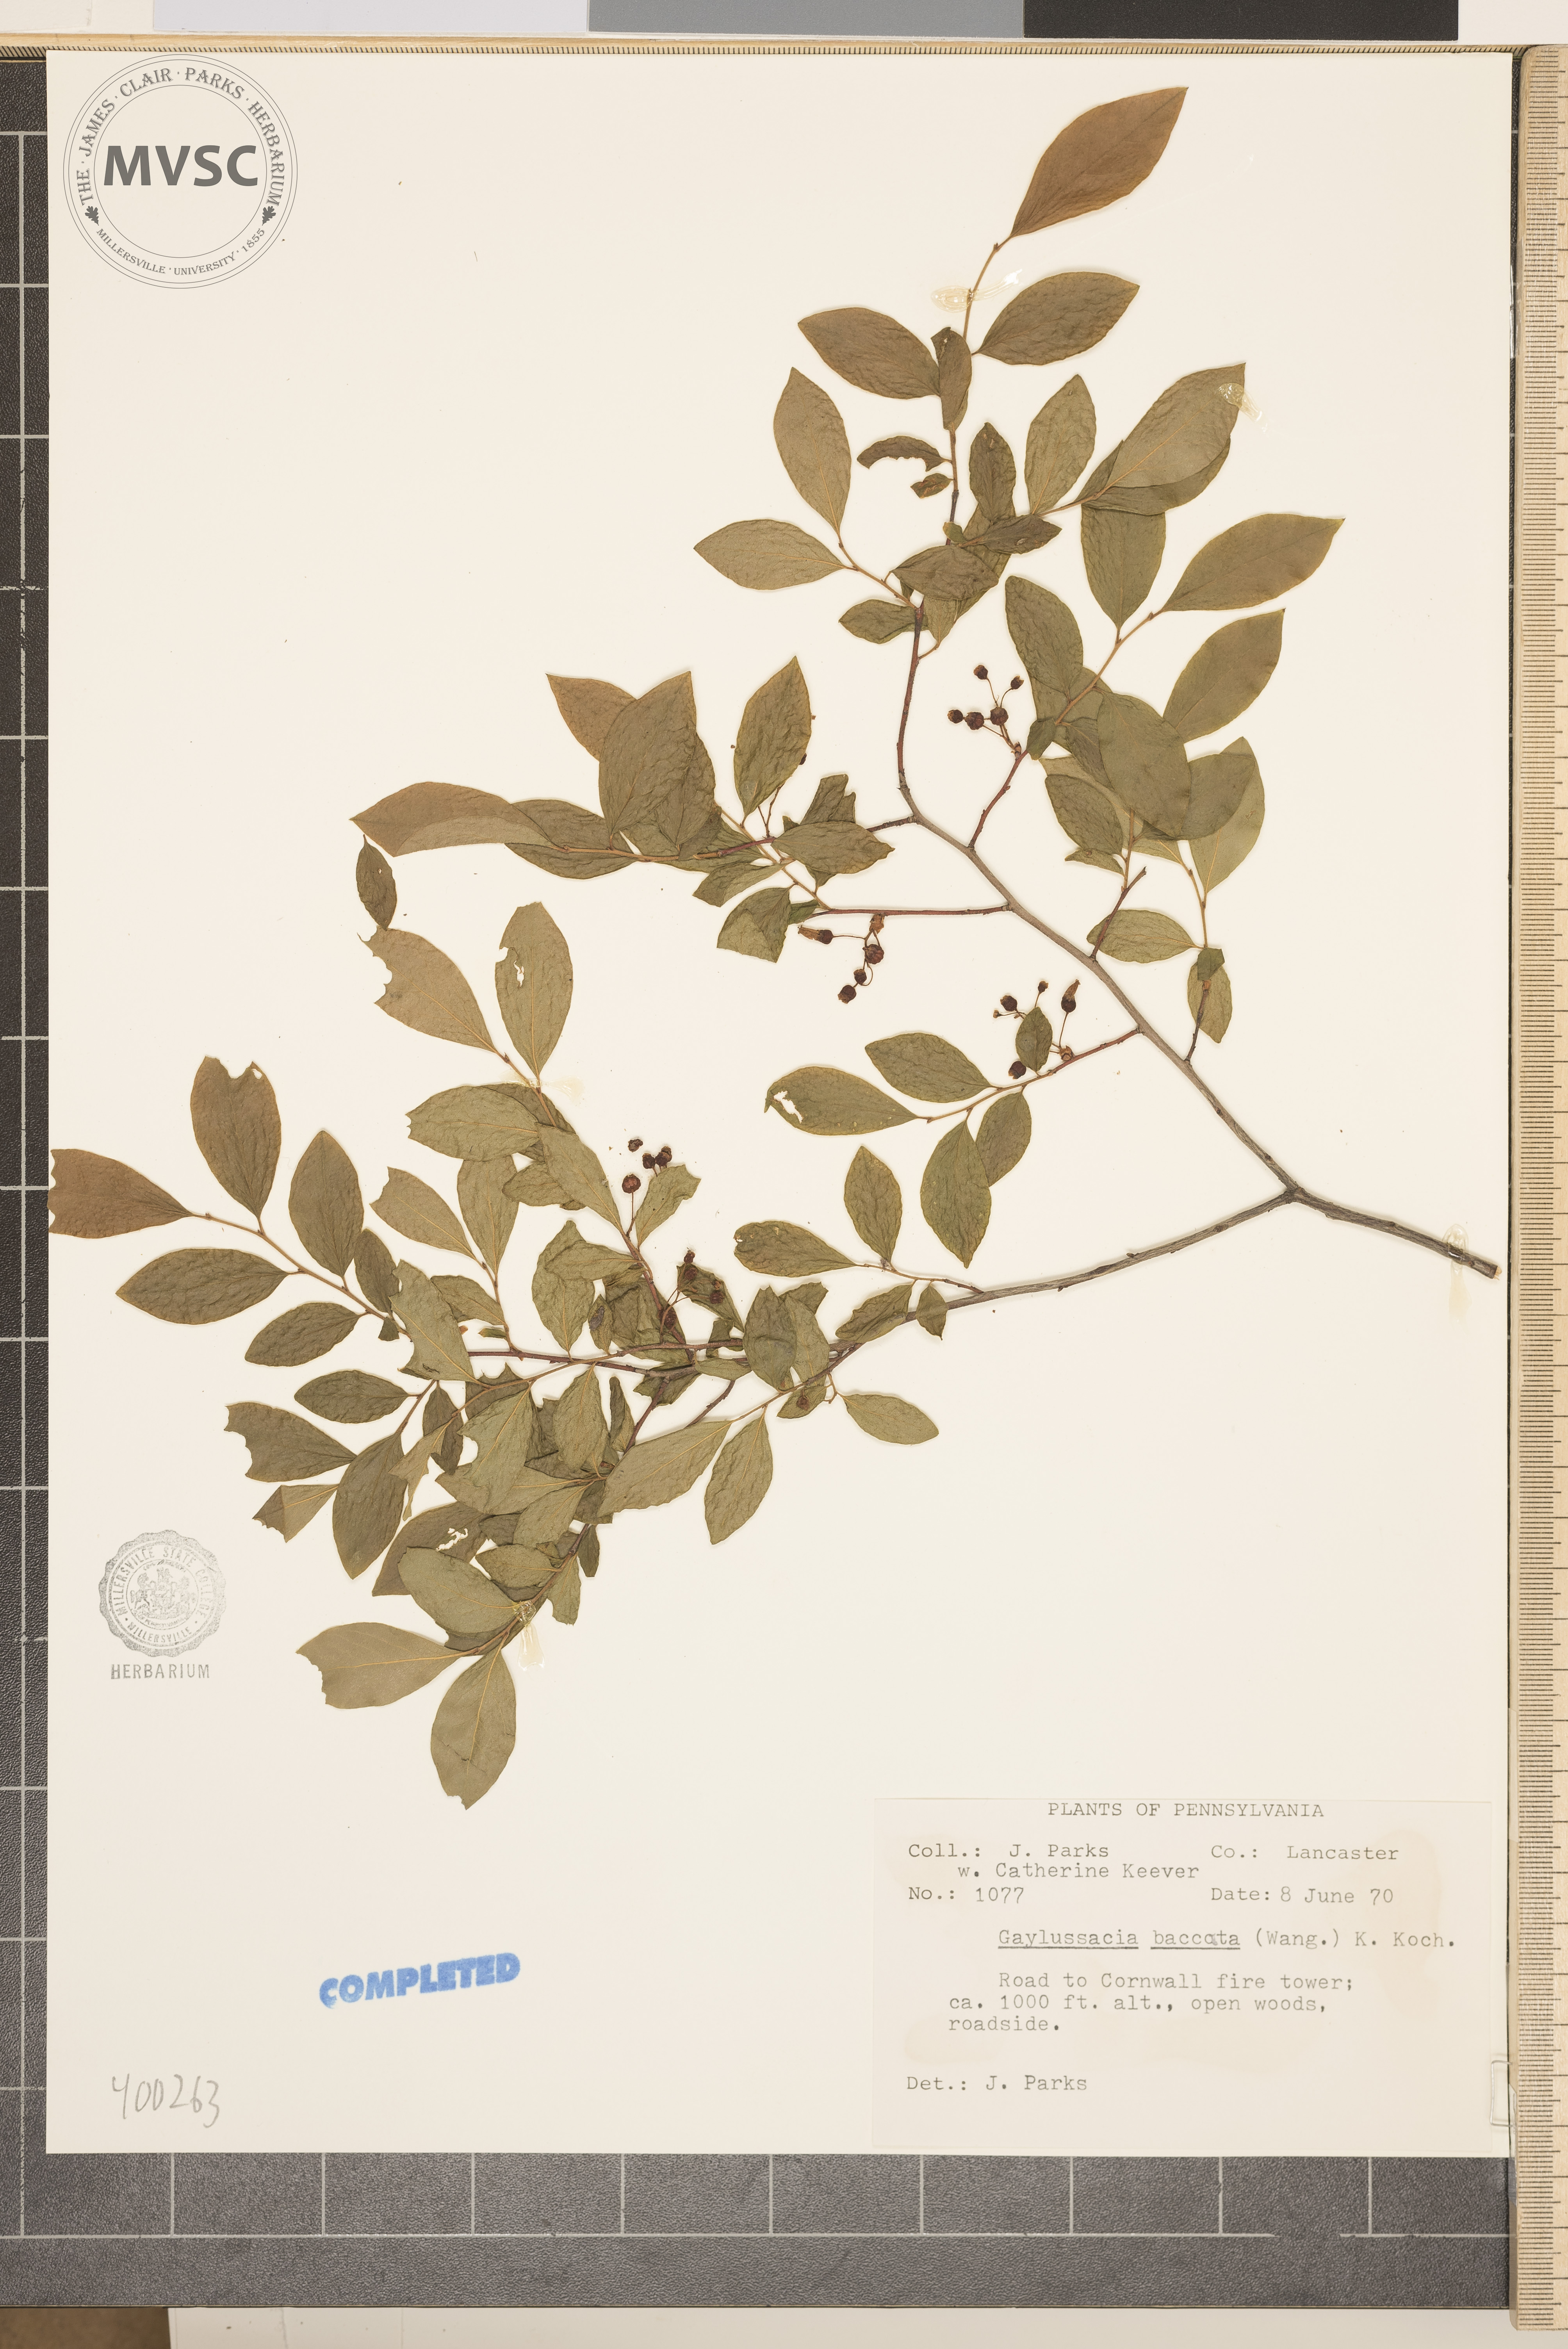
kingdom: Plantae
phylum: Tracheophyta
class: Magnoliopsida
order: Ericales
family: Ericaceae
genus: Gaylussacia
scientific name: Gaylussacia baccata
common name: Black huckleberry
